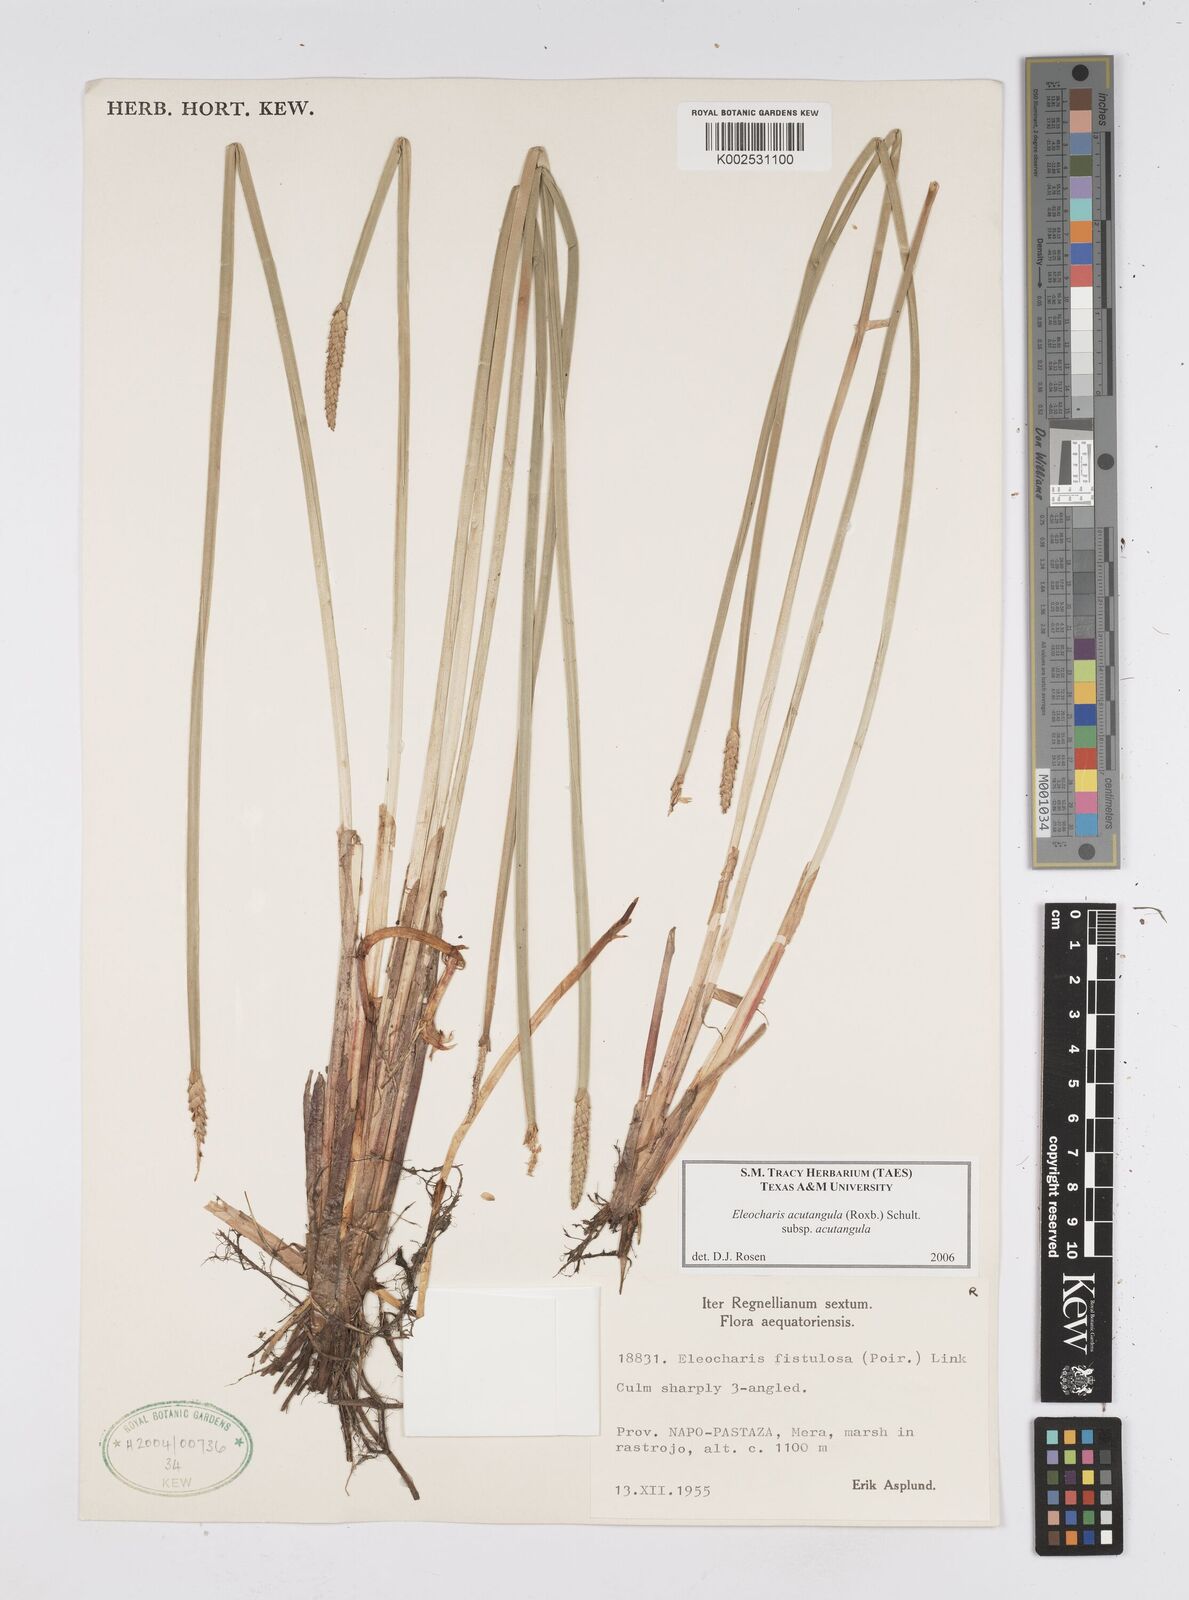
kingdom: Plantae
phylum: Tracheophyta
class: Liliopsida
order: Poales
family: Cyperaceae
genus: Eleocharis
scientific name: Eleocharis acutangula
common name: Acute spikerush
